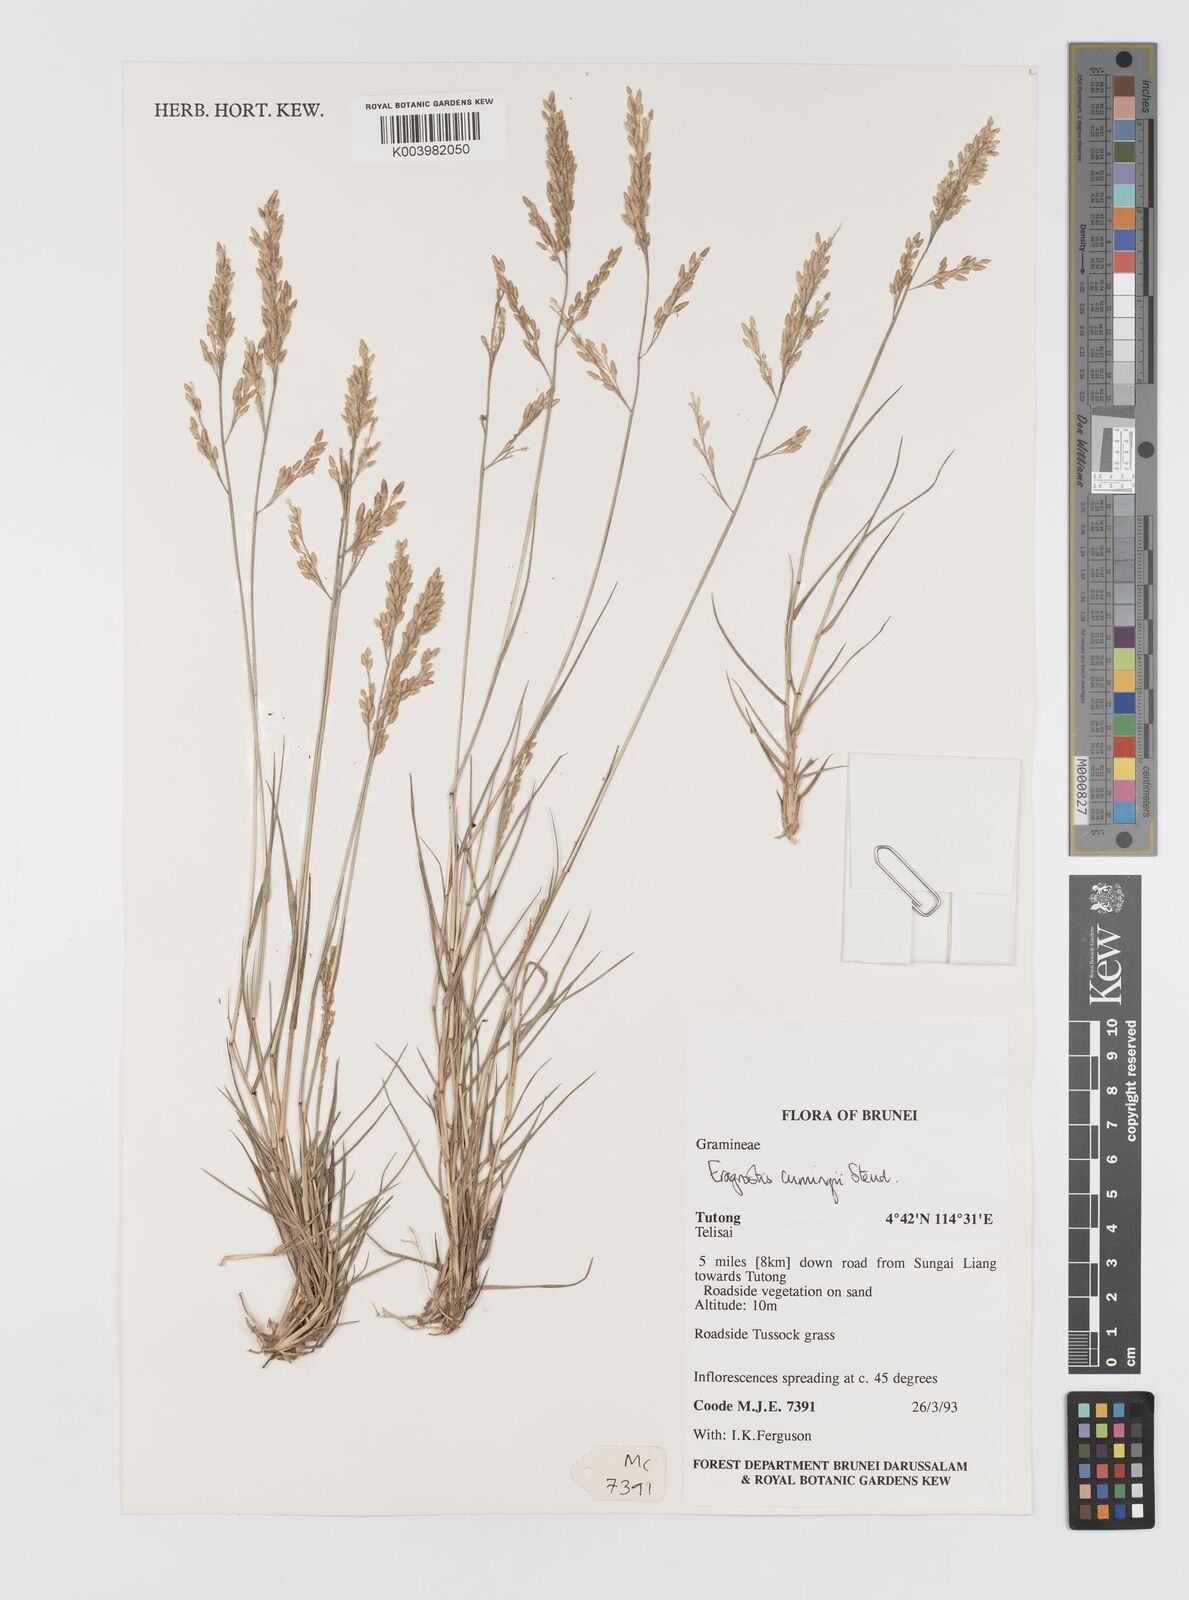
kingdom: Plantae
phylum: Tracheophyta
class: Liliopsida
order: Poales
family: Poaceae
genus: Eragrostis
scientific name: Eragrostis cumingii
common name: Cuming's lovegrass
